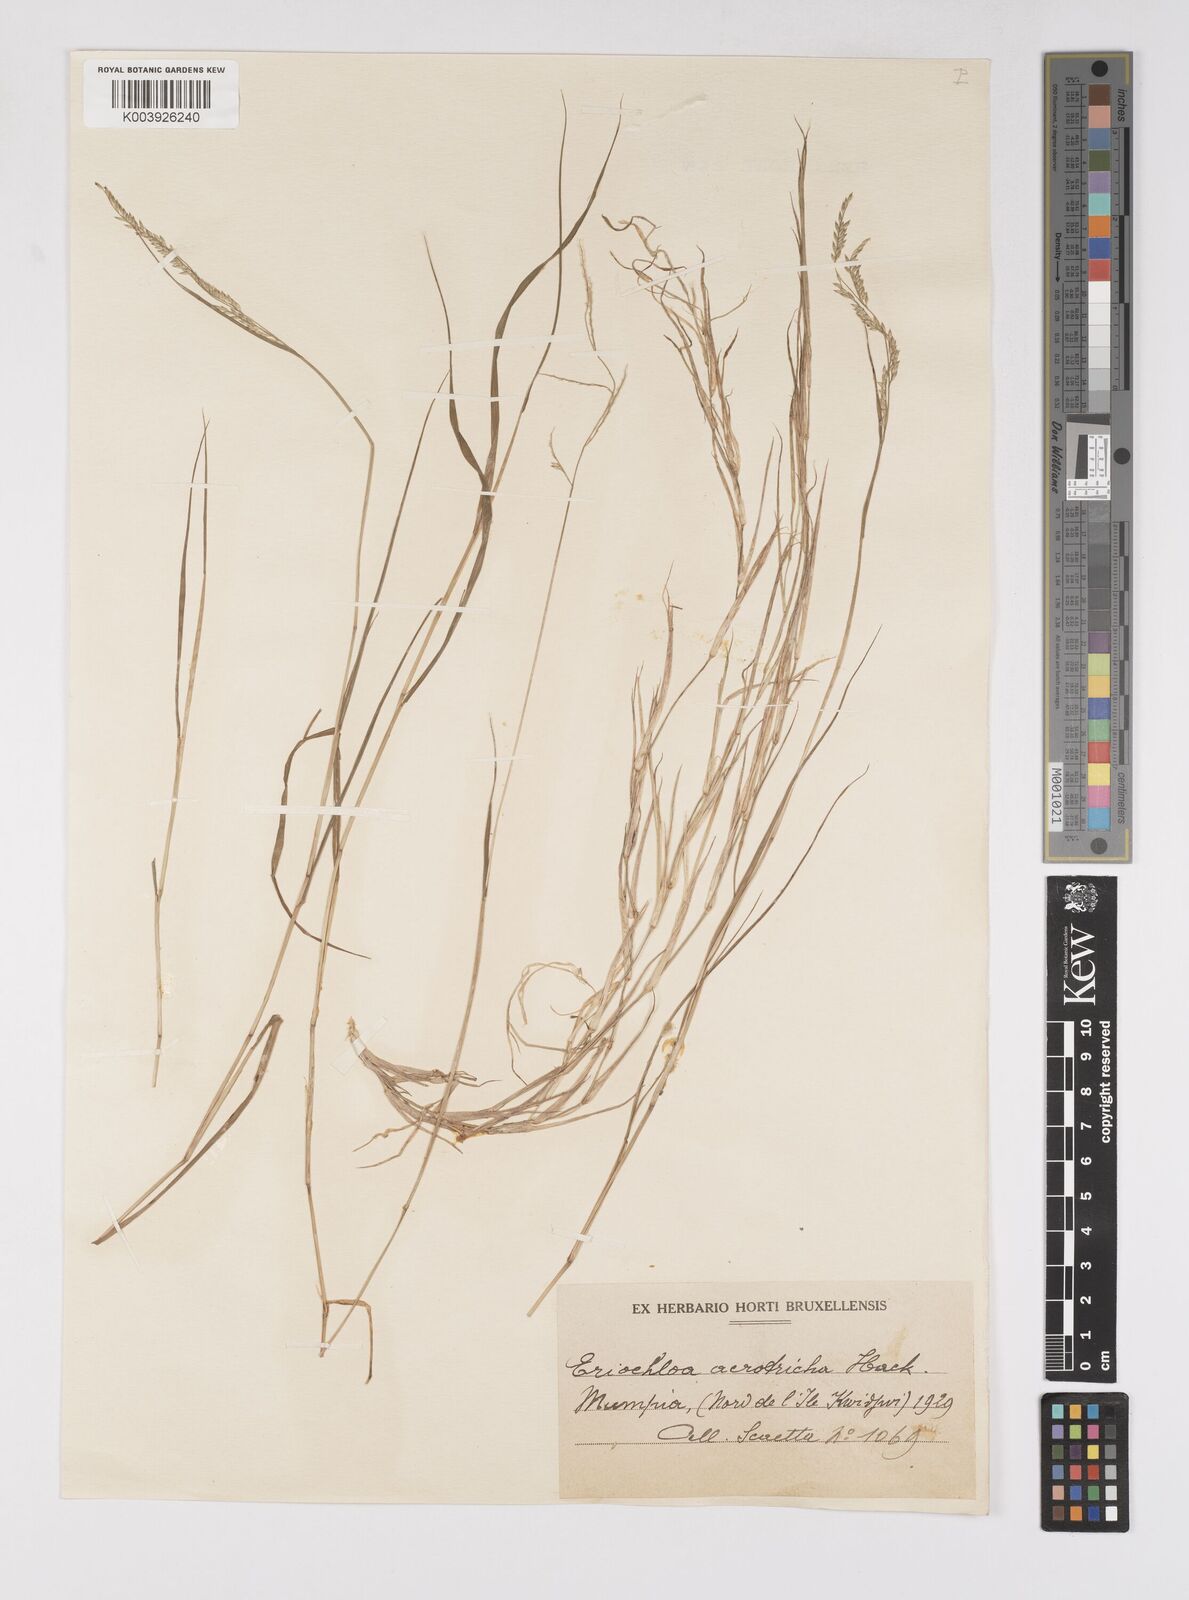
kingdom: Plantae
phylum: Tracheophyta
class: Liliopsida
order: Poales
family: Poaceae
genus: Eriochloa
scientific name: Eriochloa procera
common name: Spring grass
